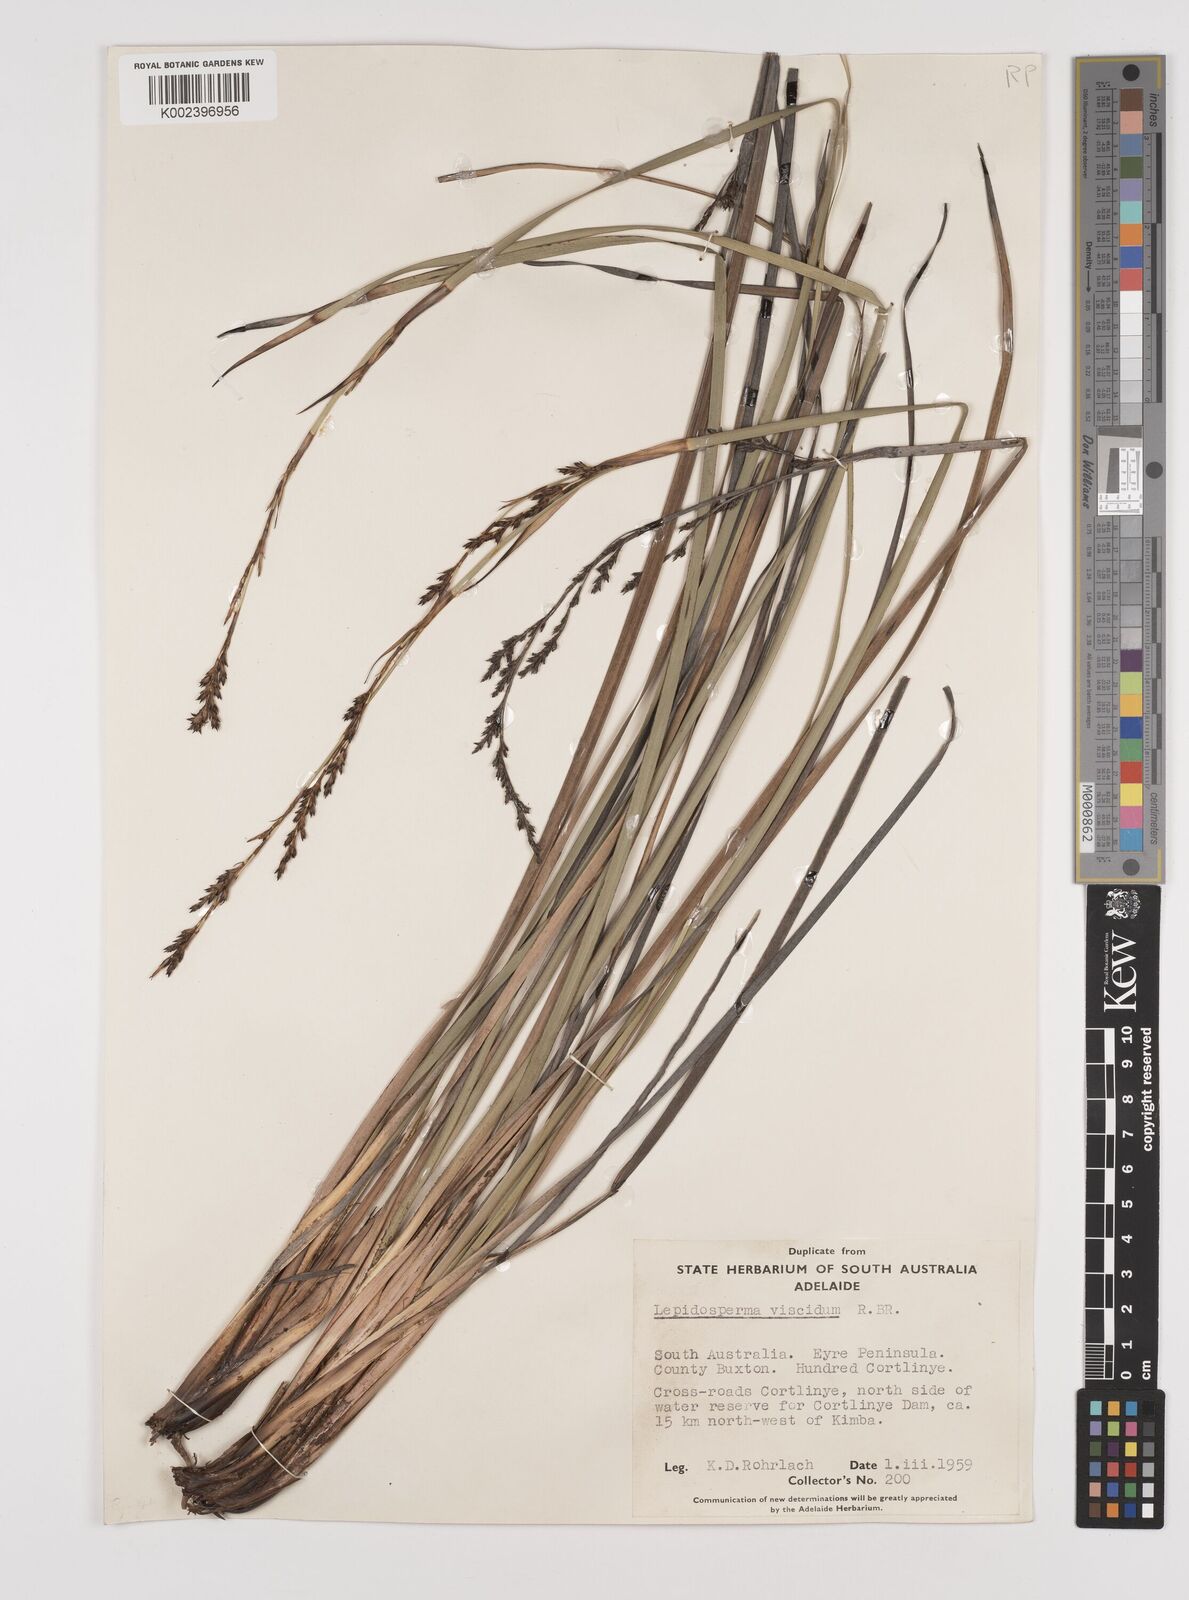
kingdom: Plantae
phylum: Tracheophyta
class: Liliopsida
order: Poales
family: Cyperaceae
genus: Lepidosperma
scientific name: Lepidosperma viscidum
